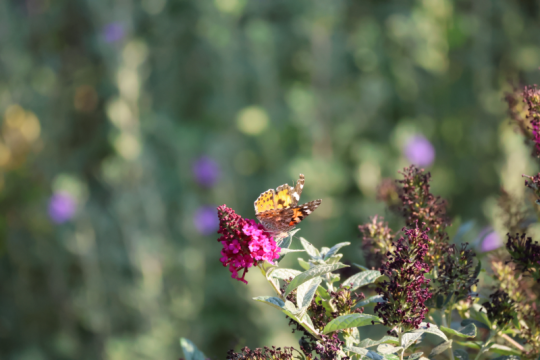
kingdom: Animalia
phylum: Arthropoda
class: Insecta
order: Lepidoptera
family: Nymphalidae
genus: Vanessa
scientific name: Vanessa cardui
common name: Painted Lady
